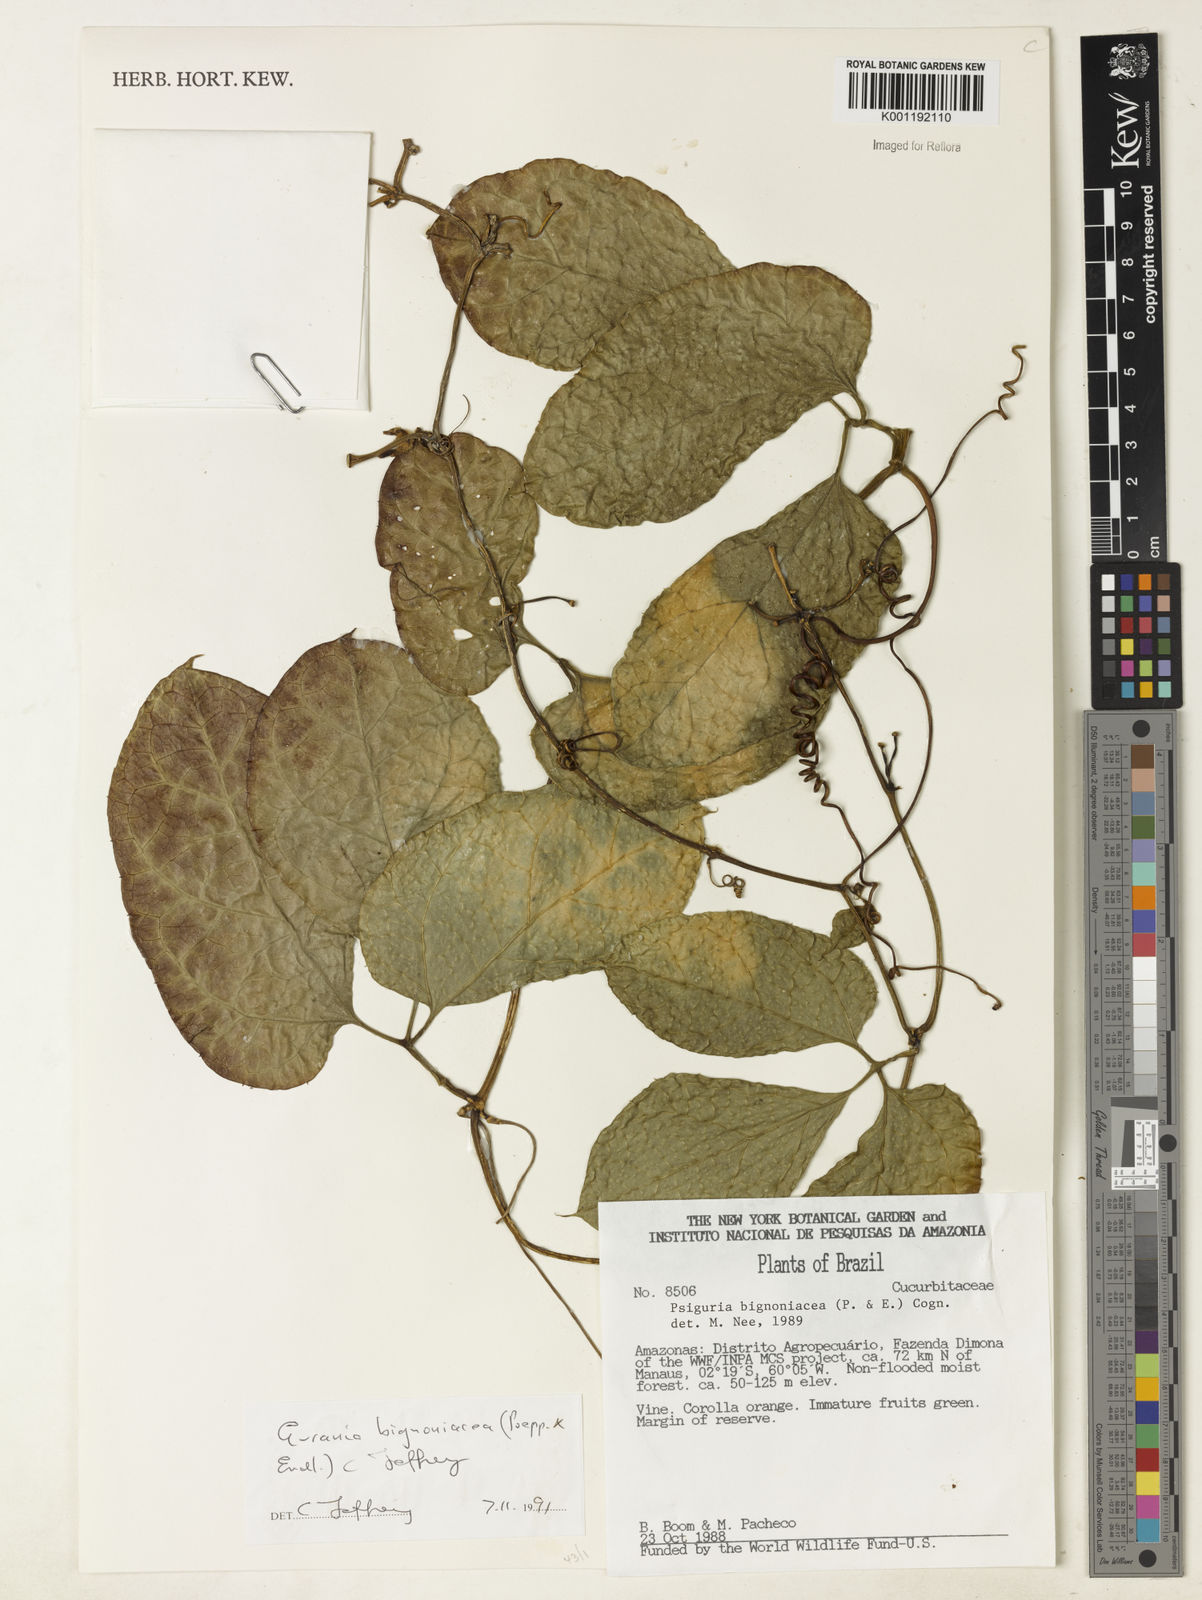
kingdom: Plantae
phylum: Tracheophyta
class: Magnoliopsida
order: Cucurbitales
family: Cucurbitaceae
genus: Gurania
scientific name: Gurania bignoniacea
